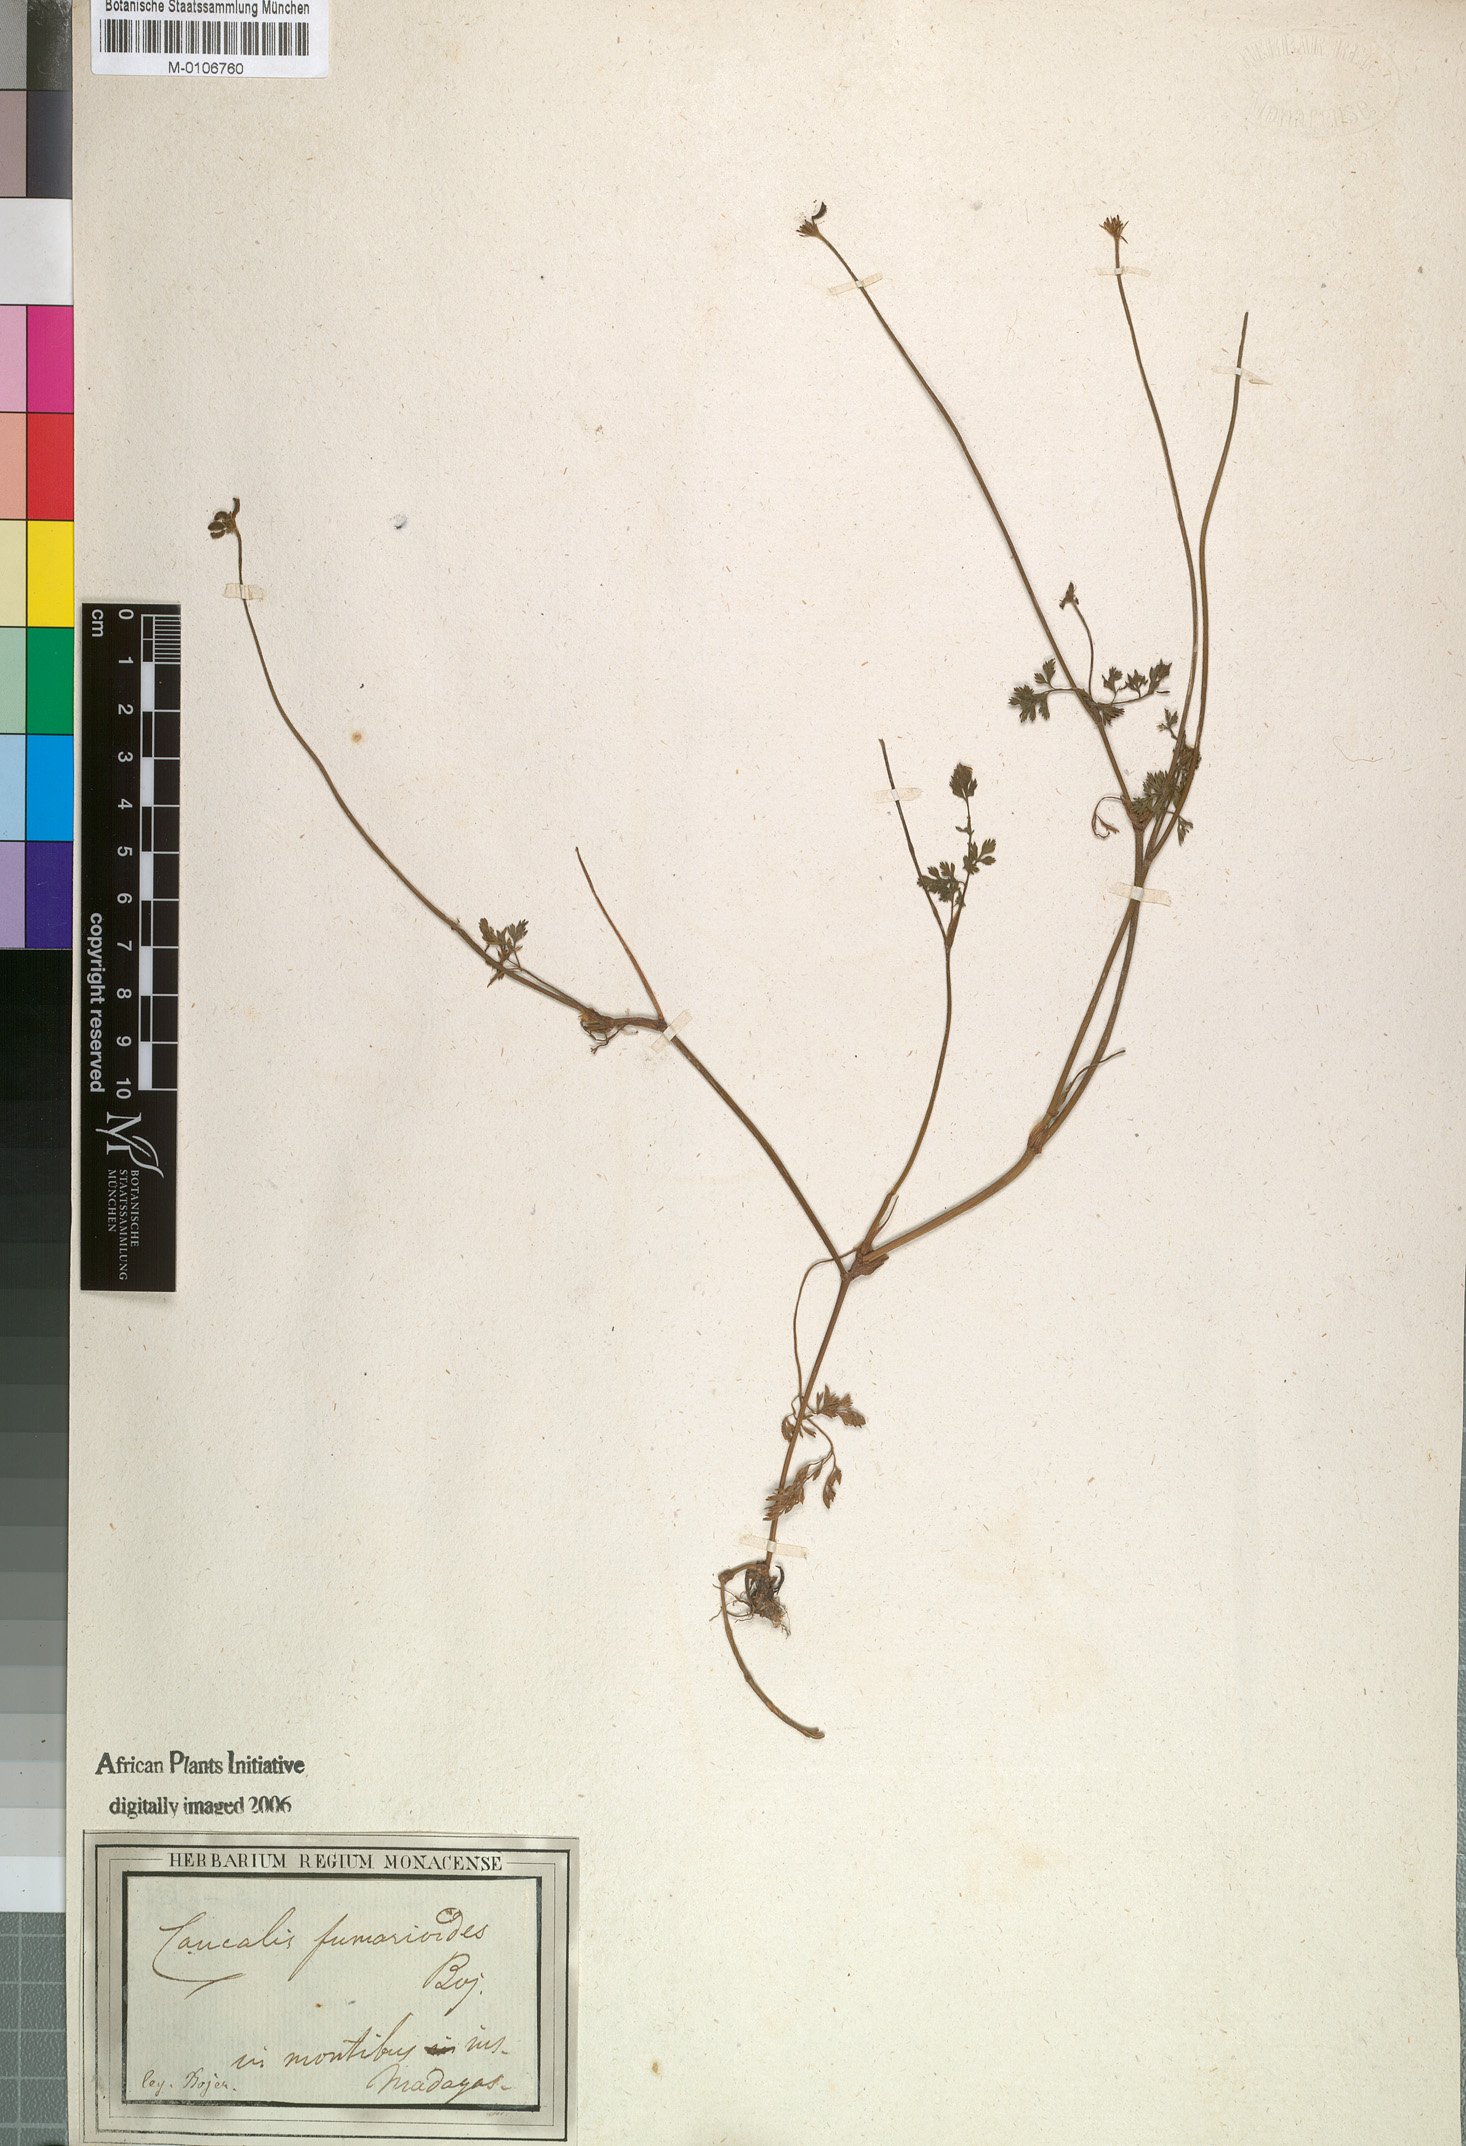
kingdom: Plantae
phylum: Tracheophyta
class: Magnoliopsida
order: Apiales
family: Apiaceae
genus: Caucalis
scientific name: Caucalis
